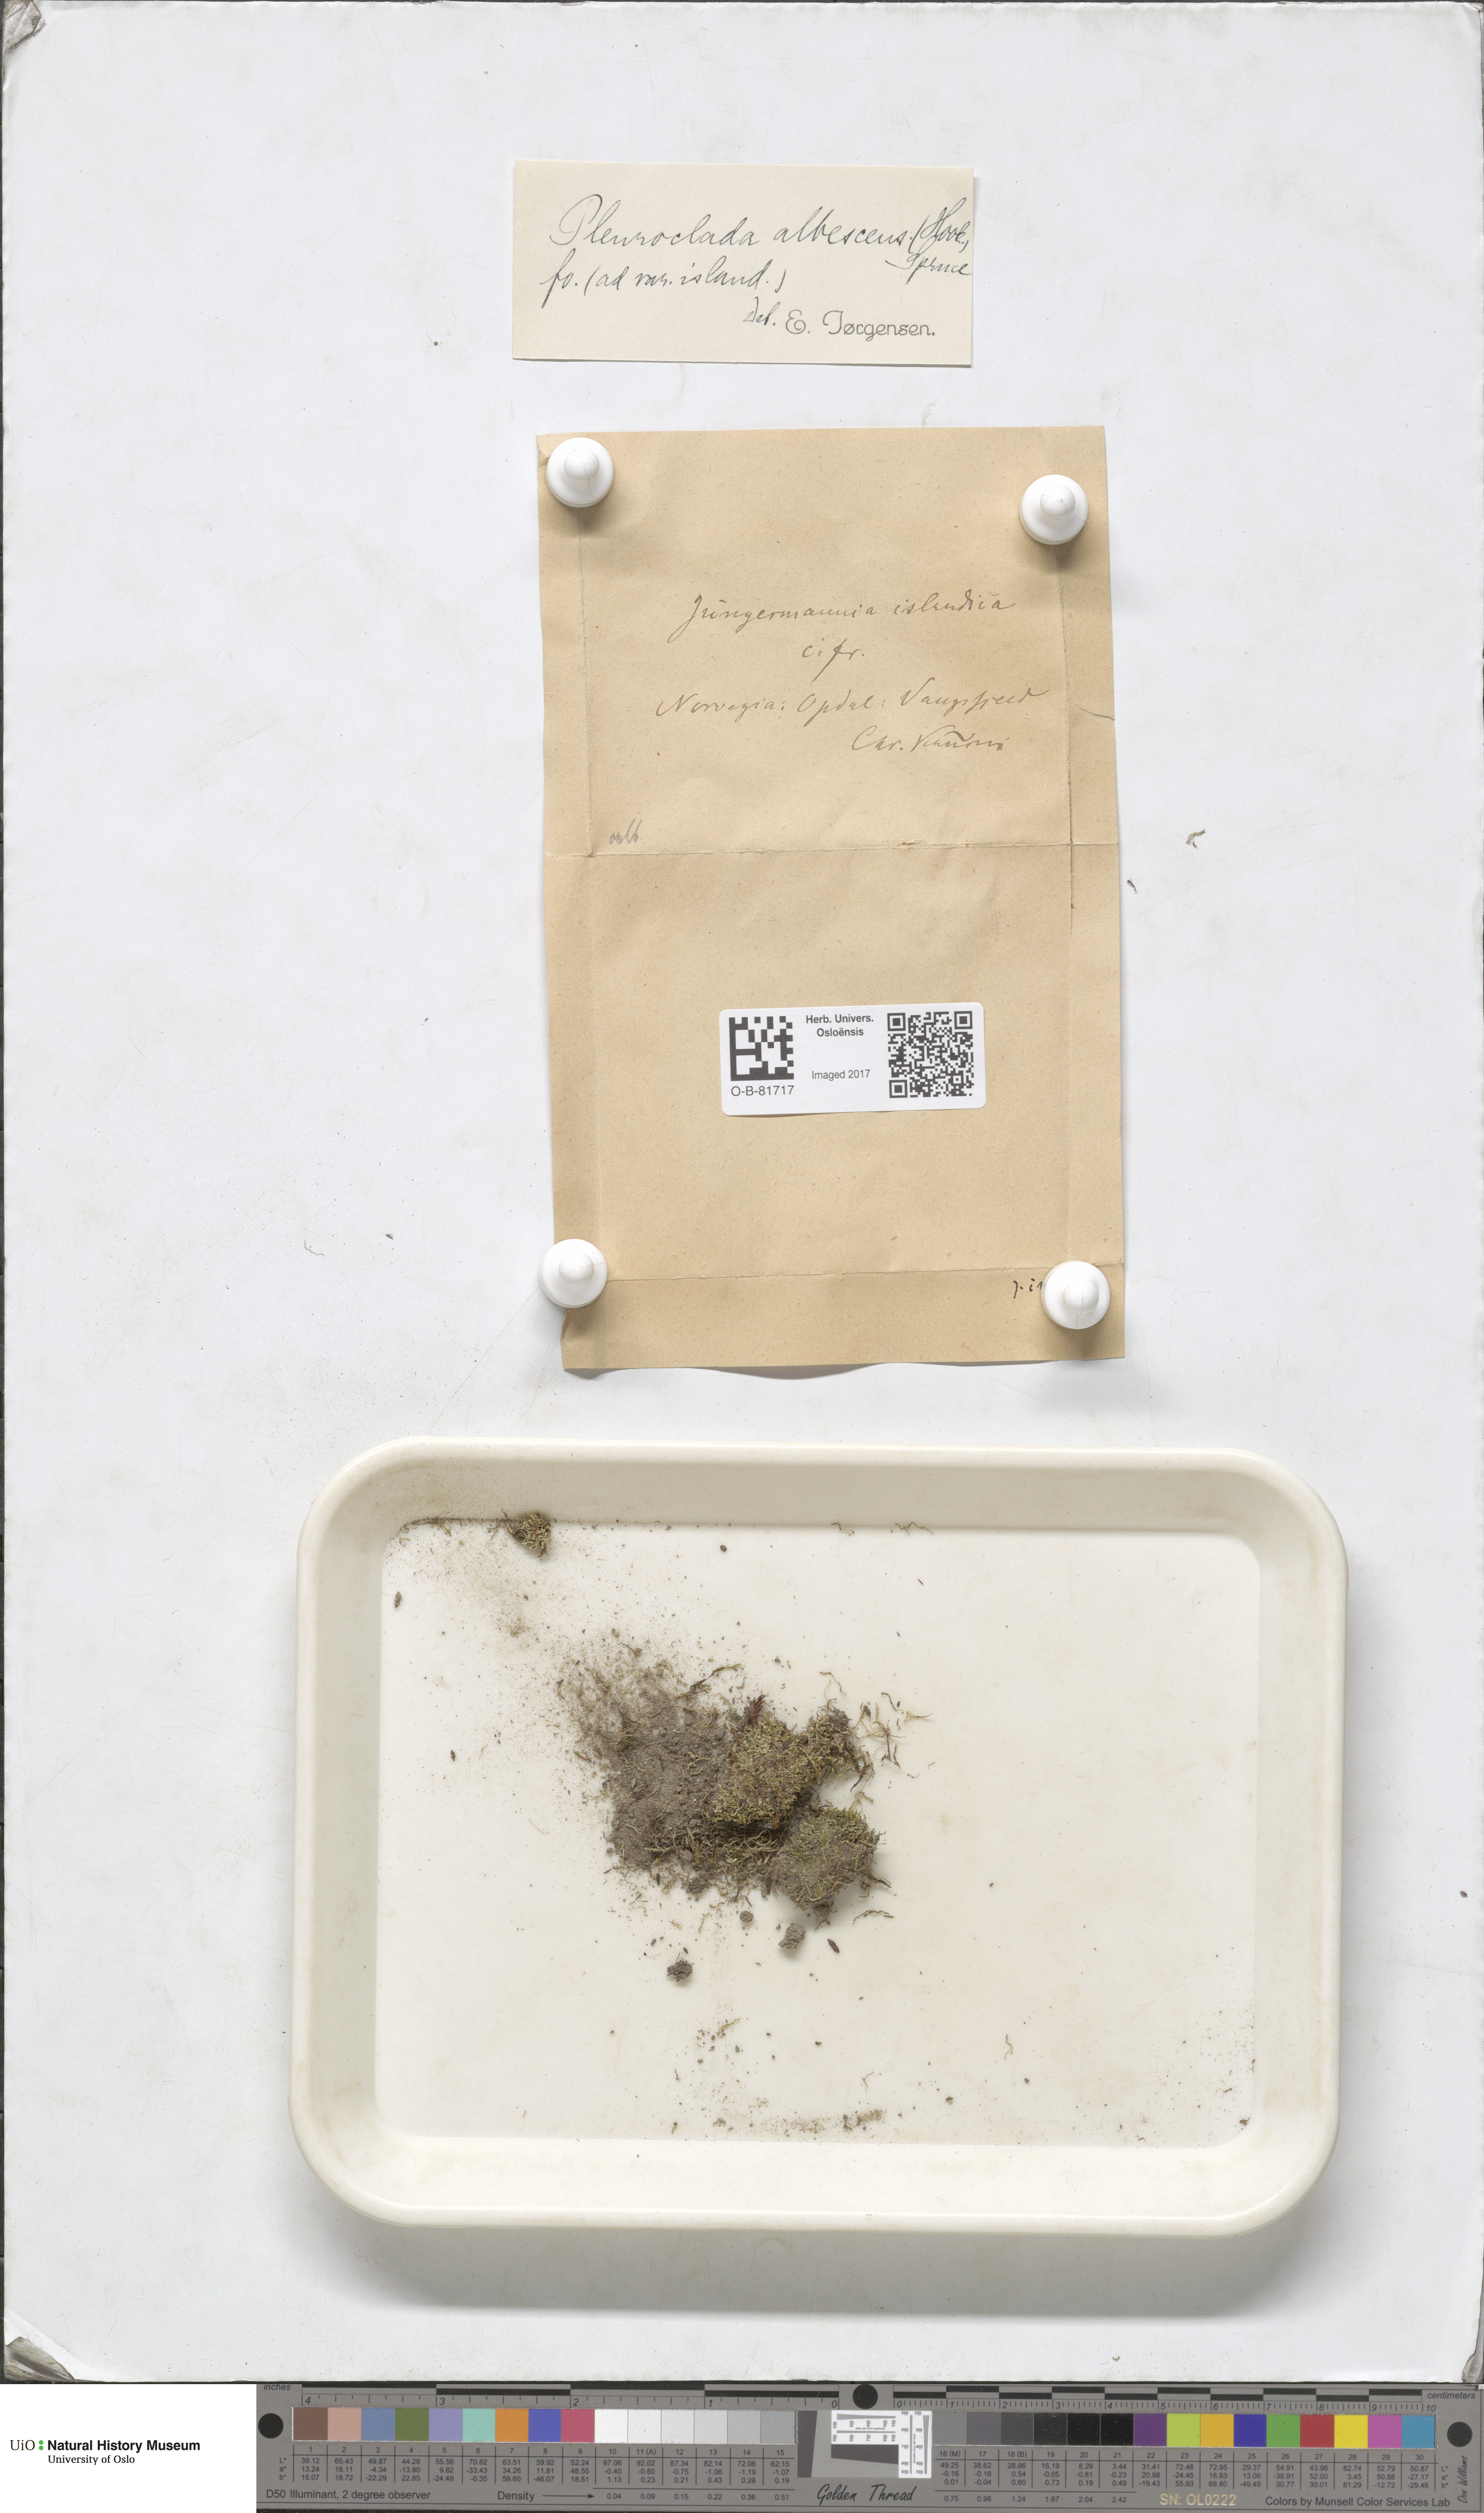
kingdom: Plantae
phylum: Marchantiophyta
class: Jungermanniopsida
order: Jungermanniales
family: Cephaloziaceae
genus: Fuscocephaloziopsis
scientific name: Fuscocephaloziopsis albescens
